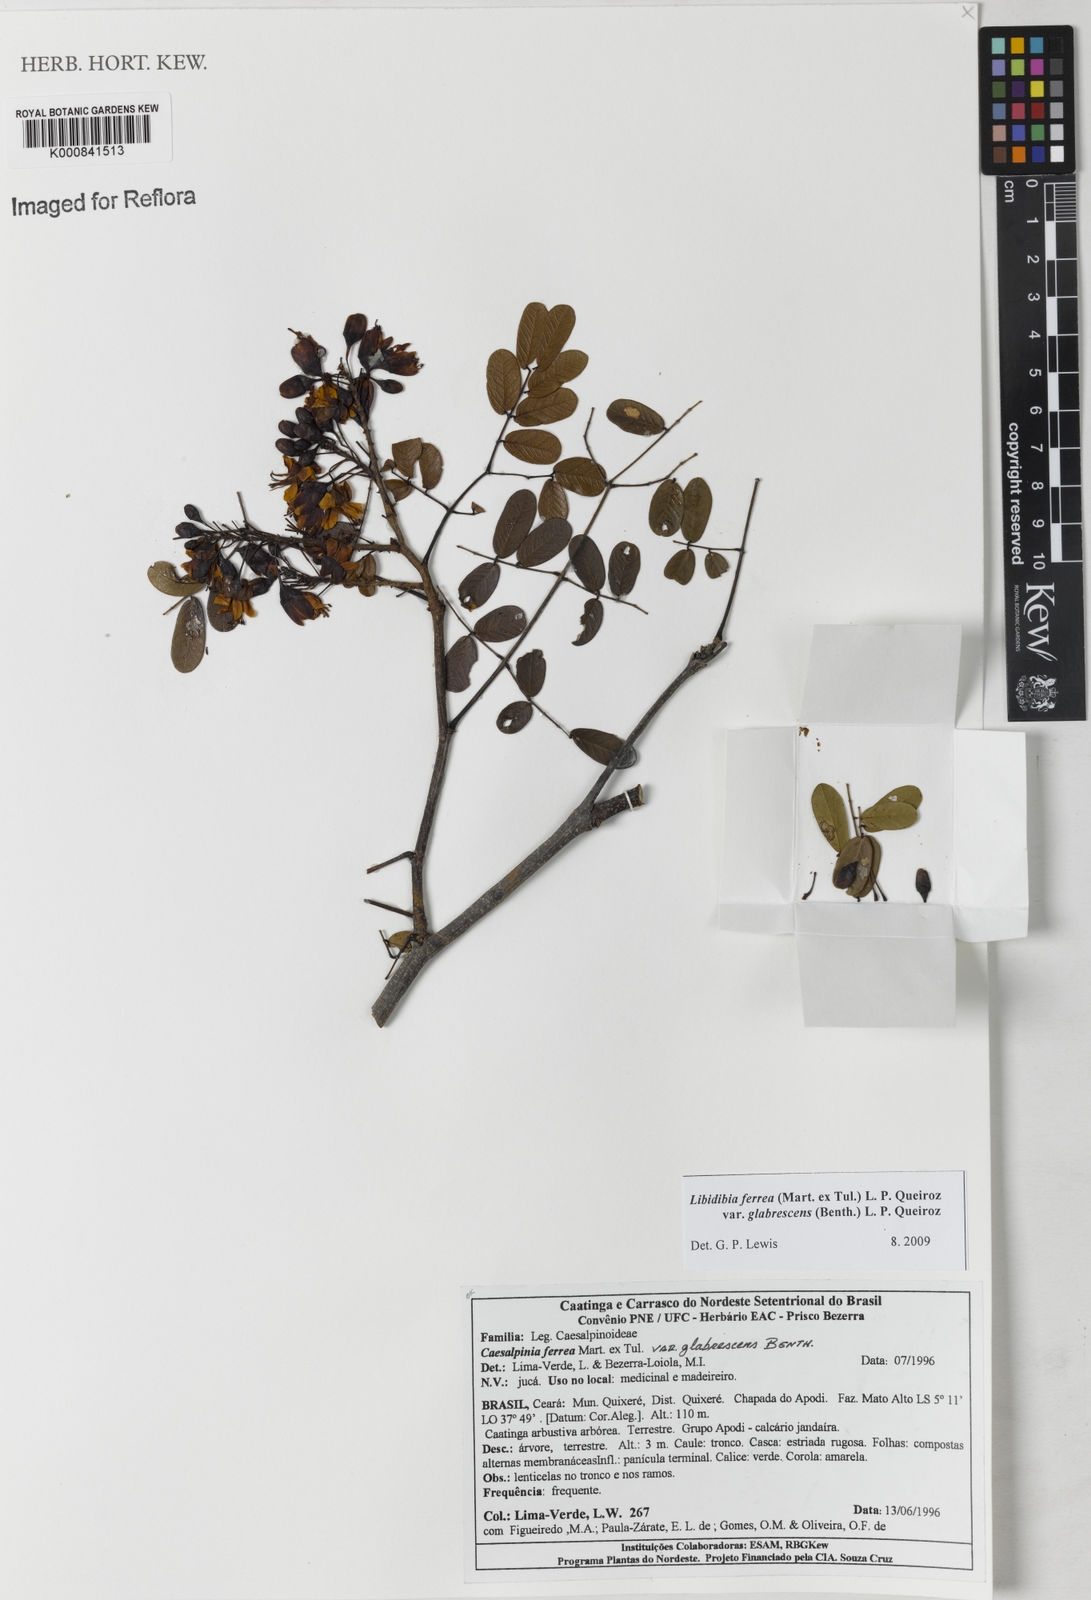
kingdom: Plantae
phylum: Tracheophyta
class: Magnoliopsida
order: Fabales
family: Fabaceae
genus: Libidibia
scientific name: Libidibia ferrea
